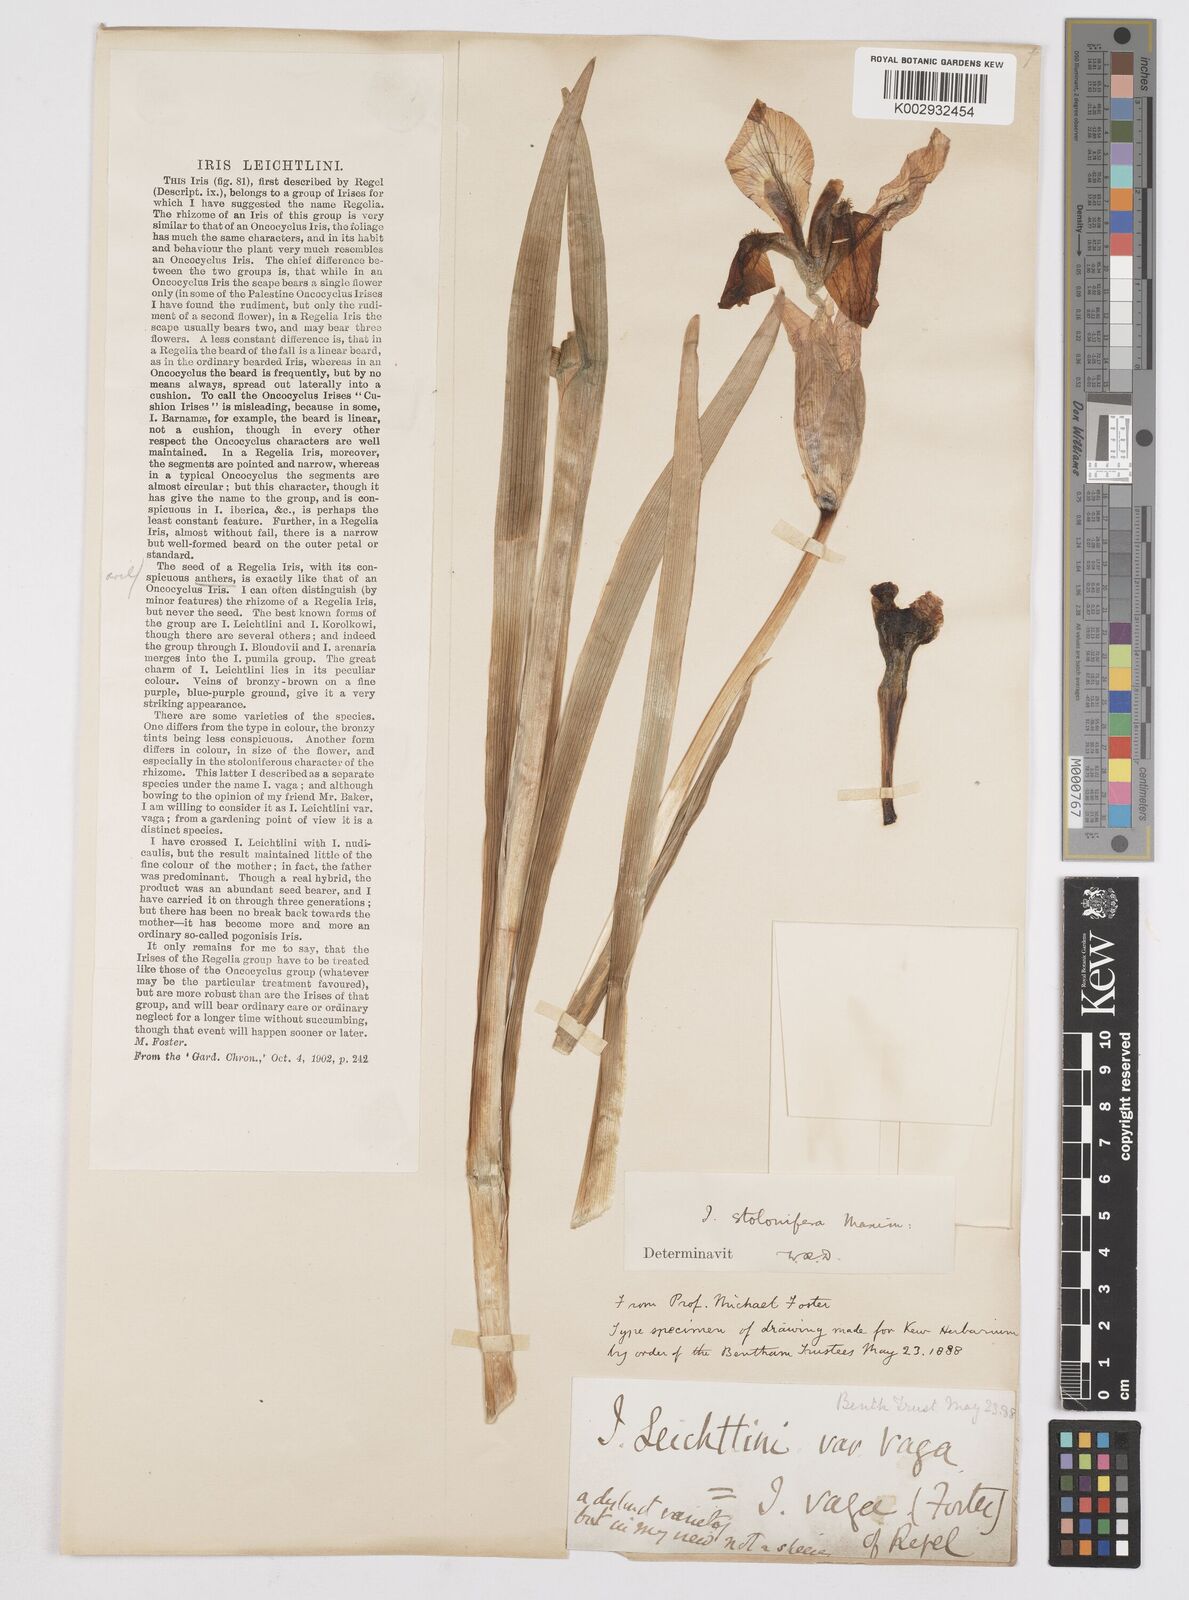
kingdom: Plantae
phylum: Tracheophyta
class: Liliopsida
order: Asparagales
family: Iridaceae
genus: Iris
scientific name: Iris stolonifera
